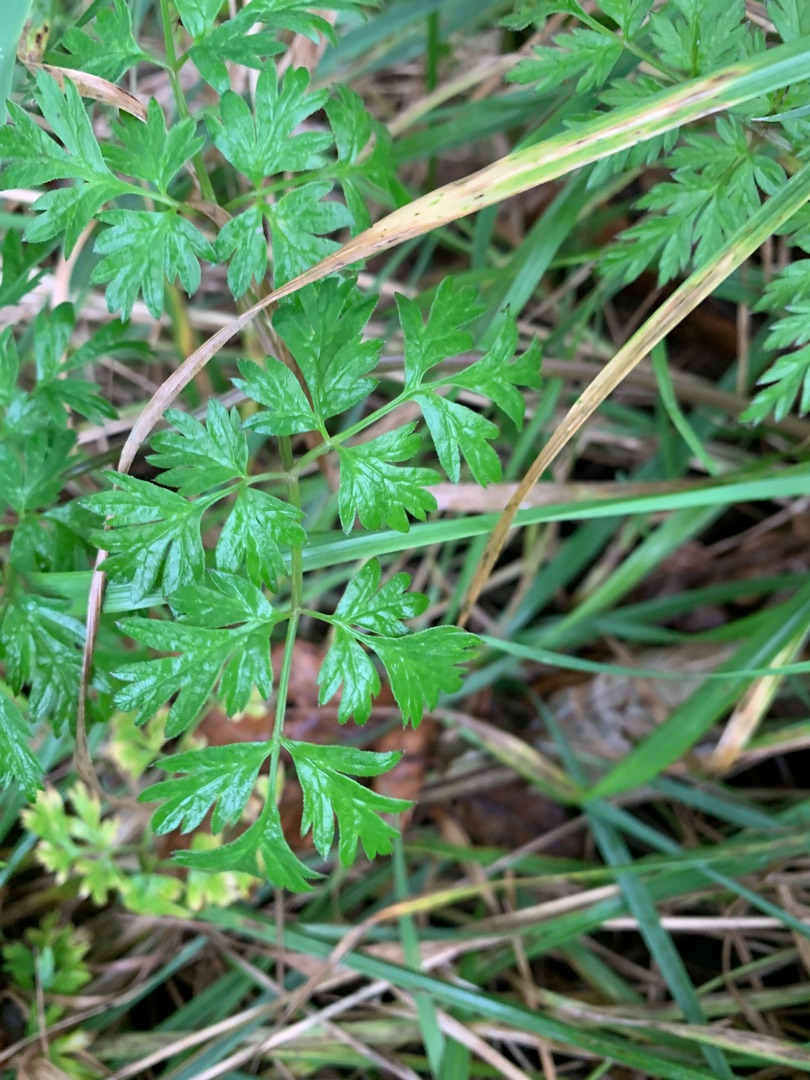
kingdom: Plantae
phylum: Tracheophyta
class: Magnoliopsida
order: Apiales
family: Apiaceae
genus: Anthriscus
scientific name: Anthriscus sylvestris
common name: Vild kørvel
